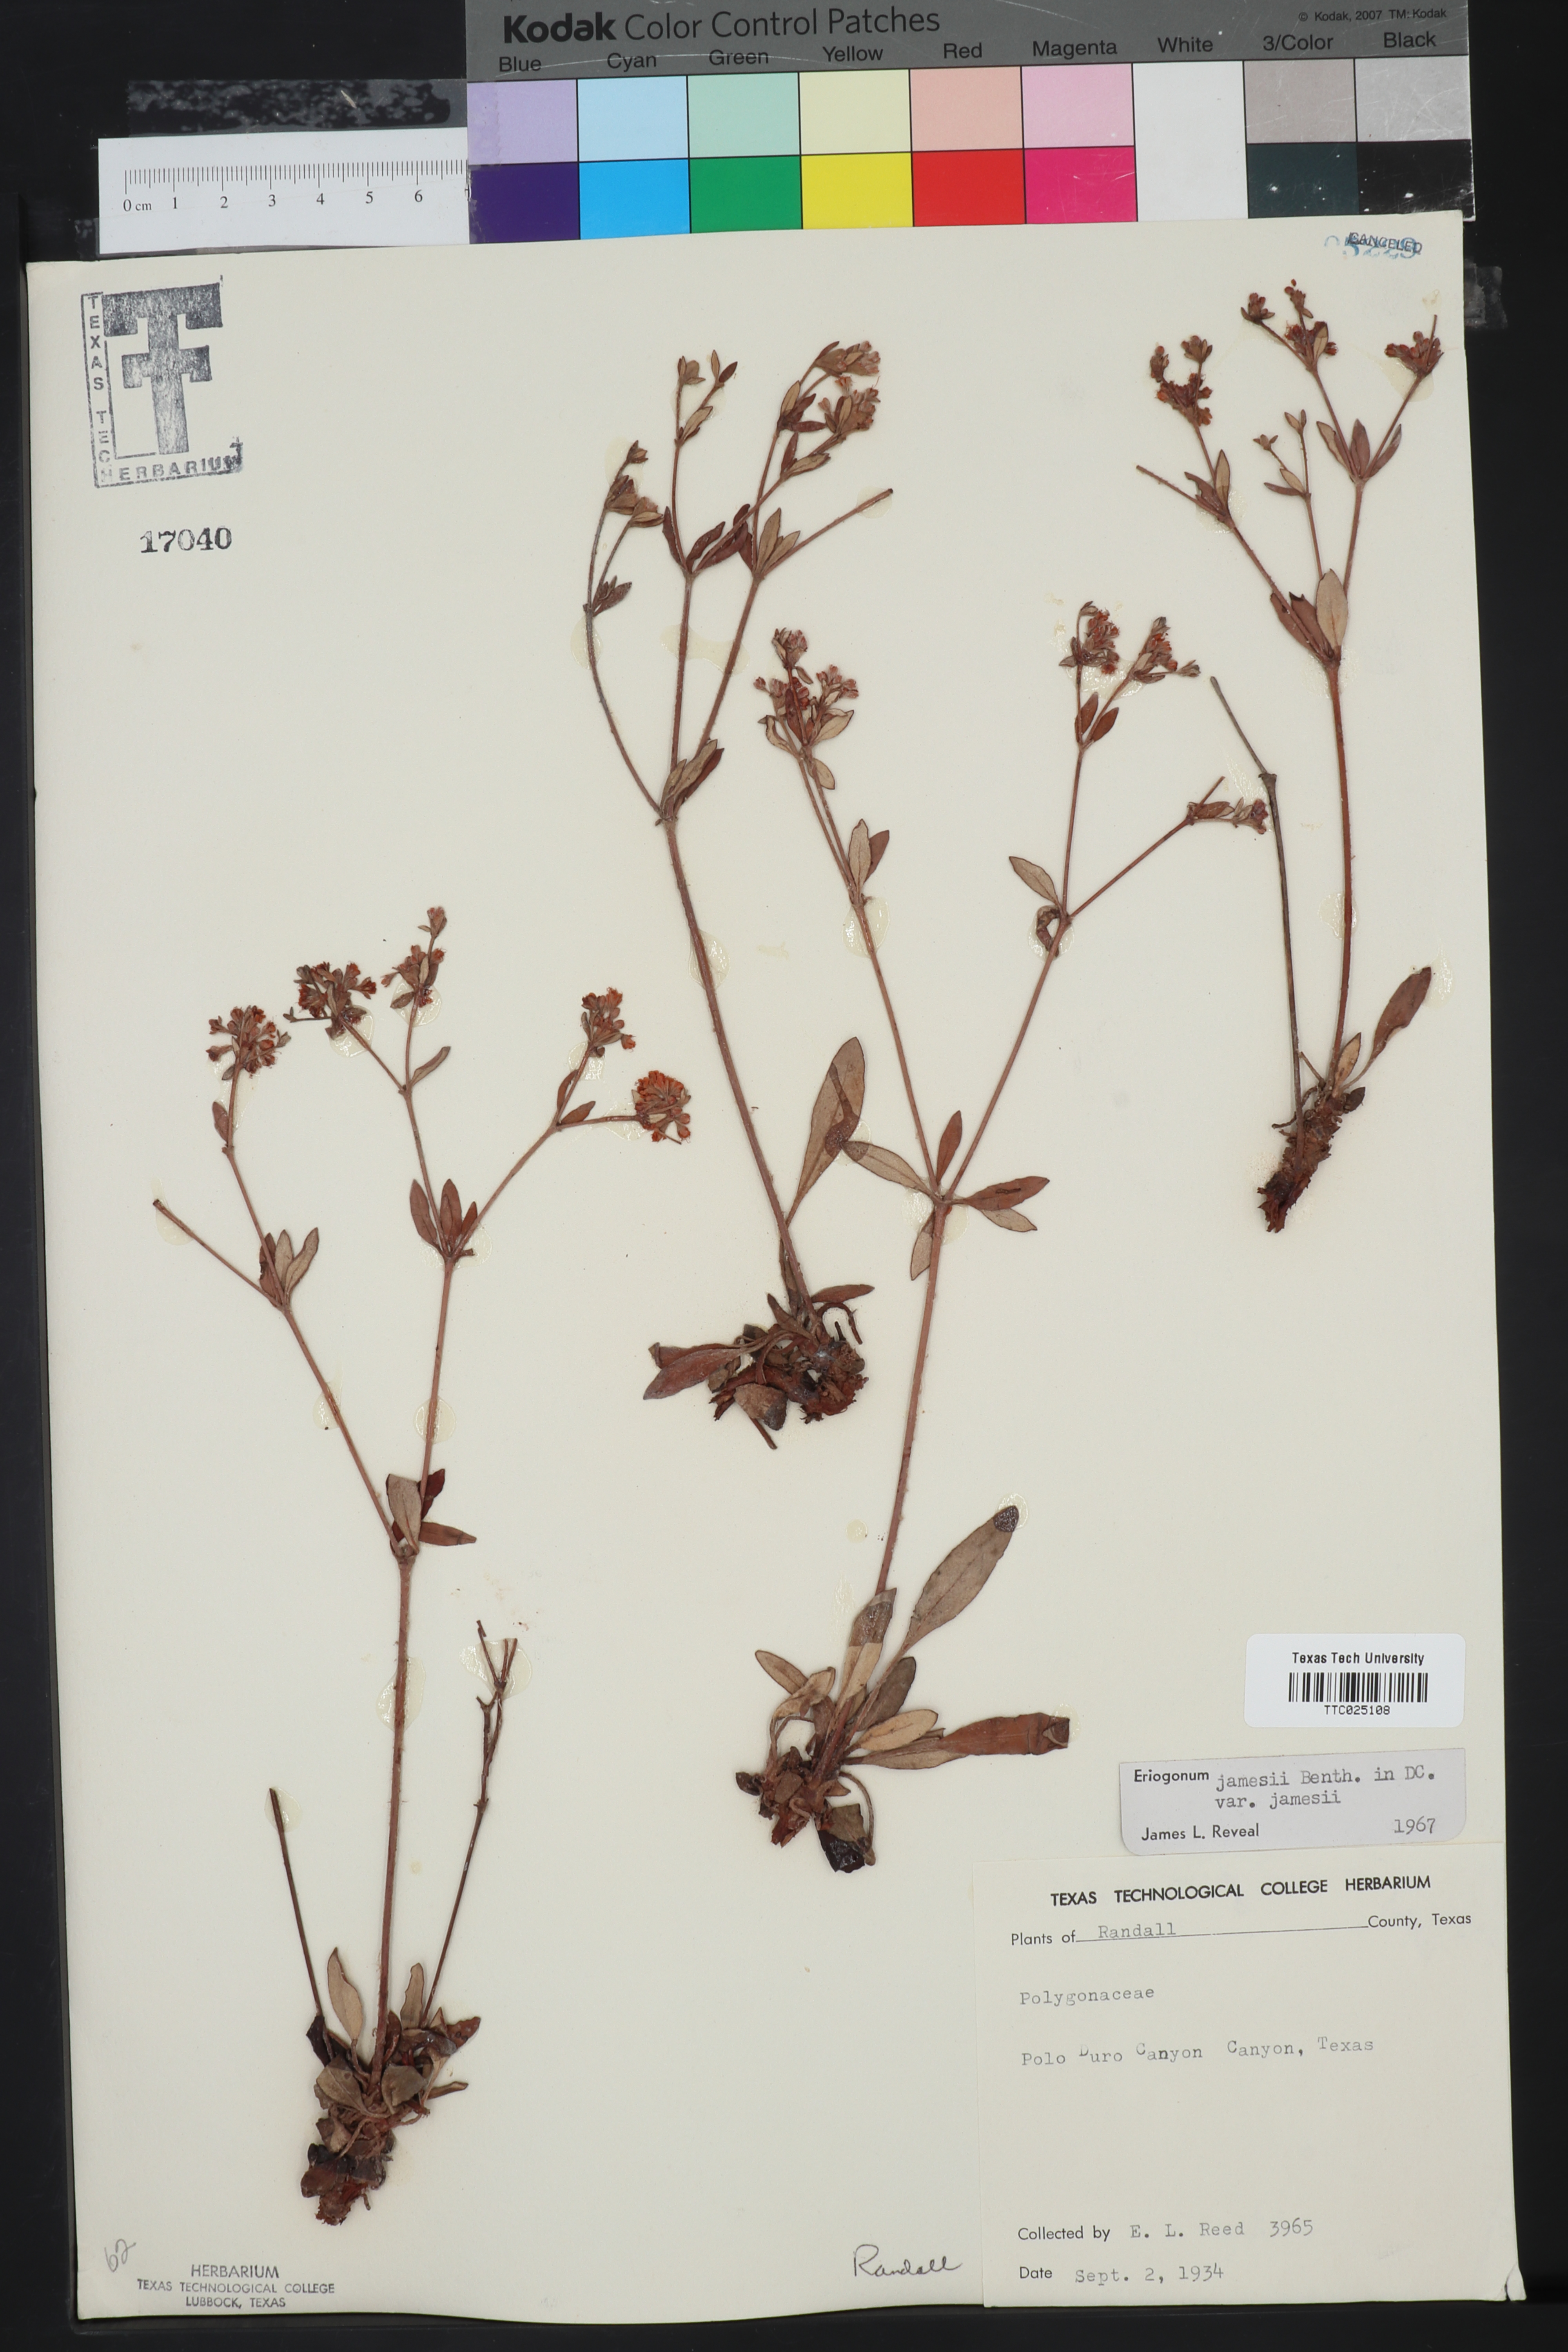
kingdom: Plantae
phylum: Tracheophyta
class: Magnoliopsida
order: Caryophyllales
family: Polygonaceae
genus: Eriogonum
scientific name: Eriogonum jamesii
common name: Antelope-sage
